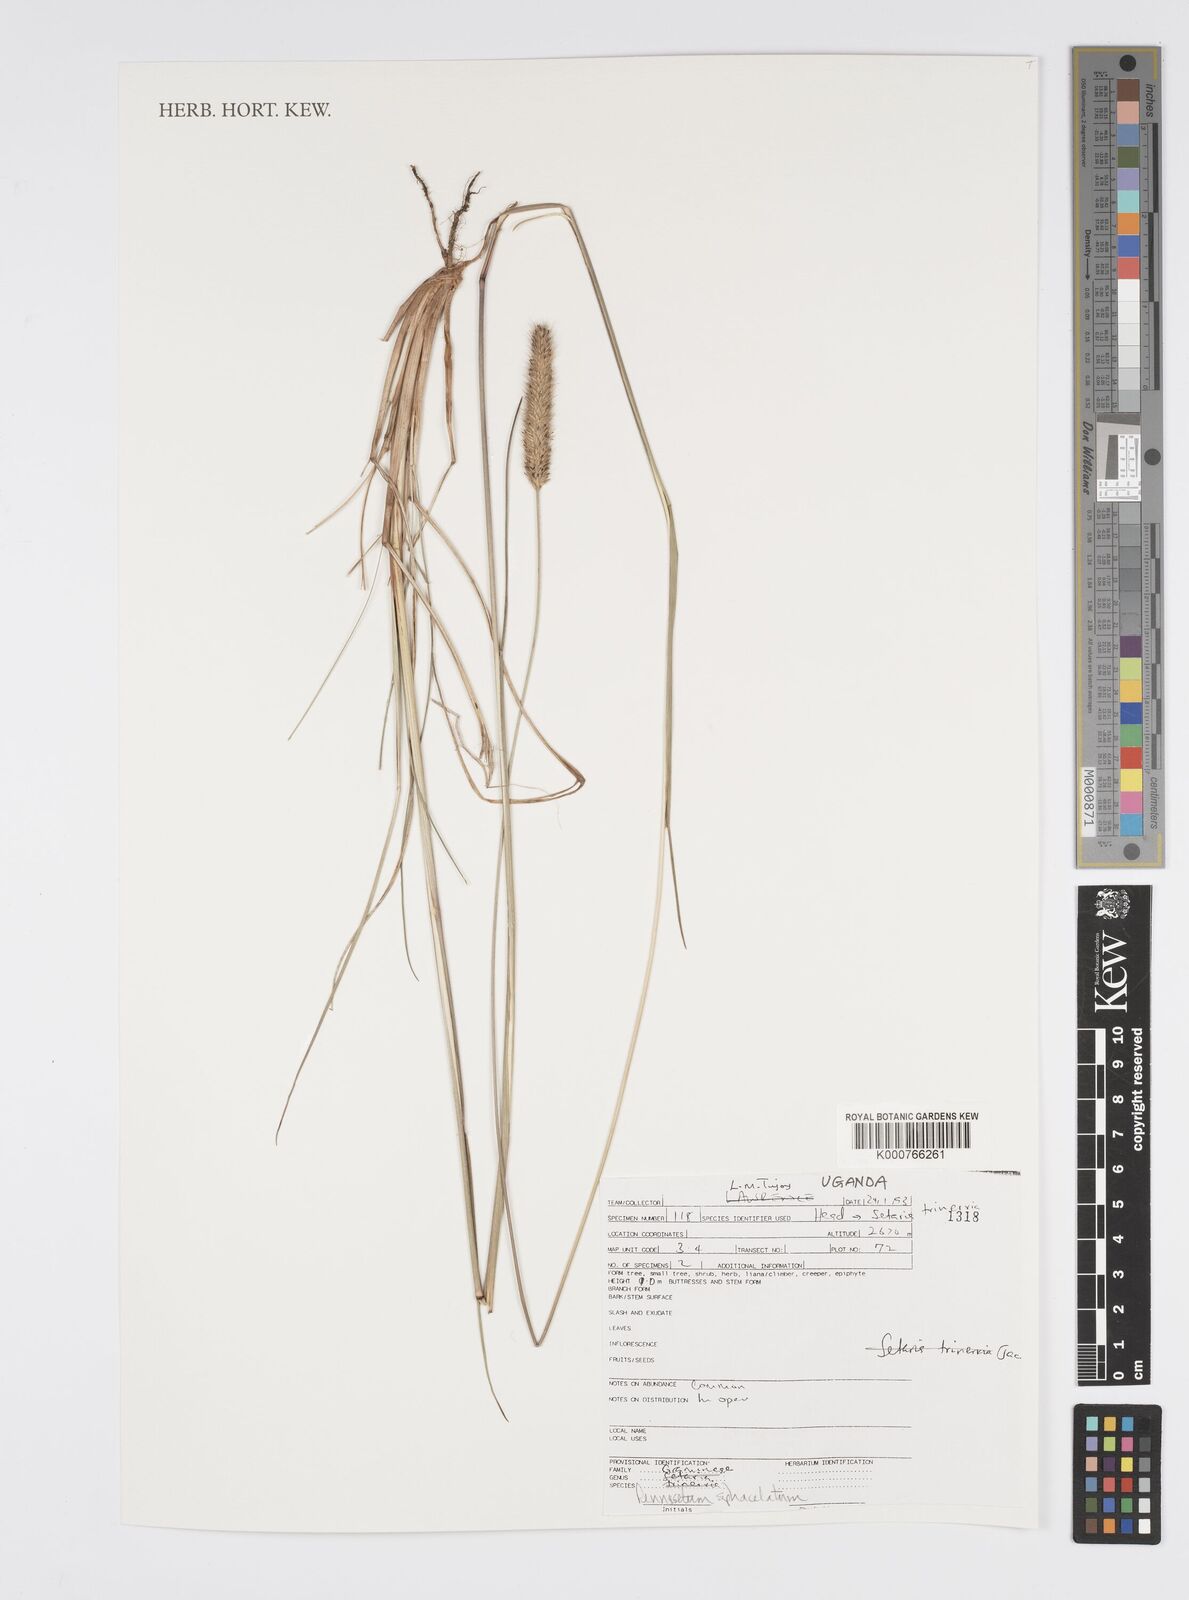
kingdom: Plantae
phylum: Tracheophyta
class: Liliopsida
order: Poales
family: Poaceae
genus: Cenchrus
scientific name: Cenchrus sphacelatus
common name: Bulgras
